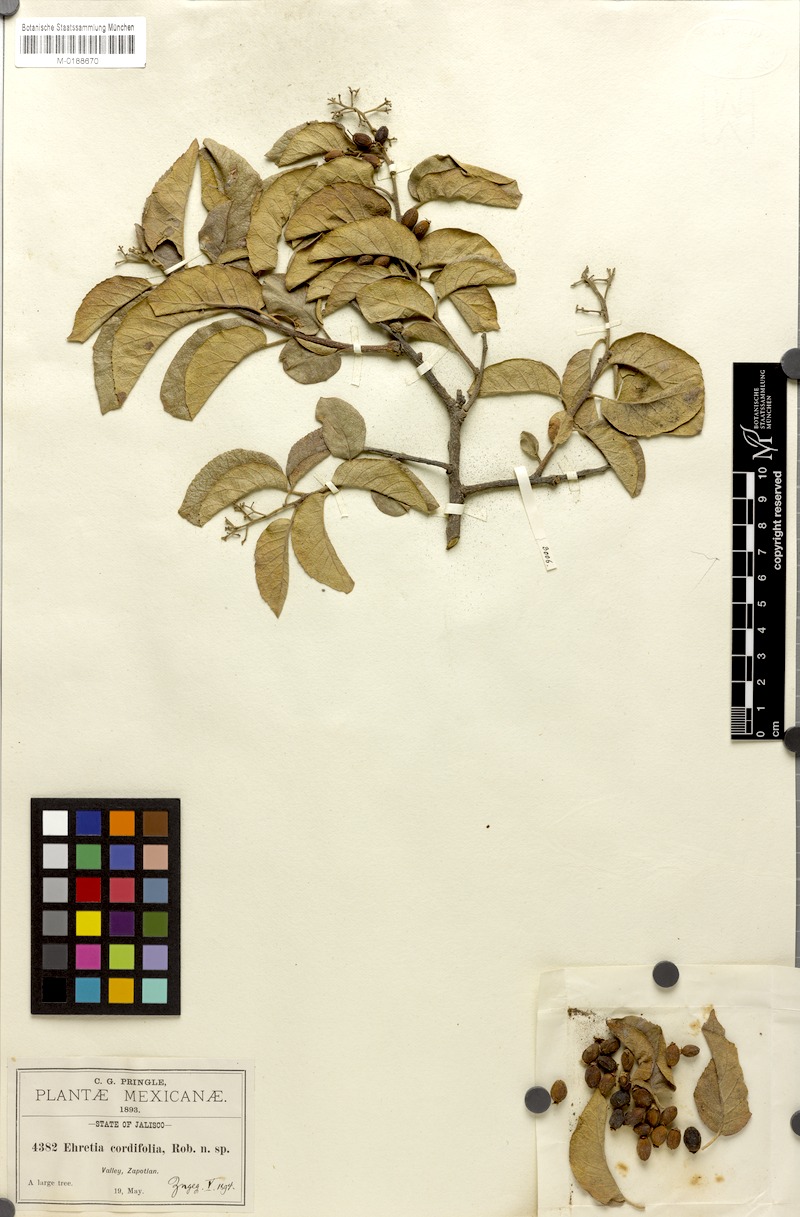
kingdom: Plantae
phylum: Tracheophyta
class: Magnoliopsida
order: Boraginales
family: Ehretiaceae
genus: Ehretia
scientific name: Ehretia latifolia
